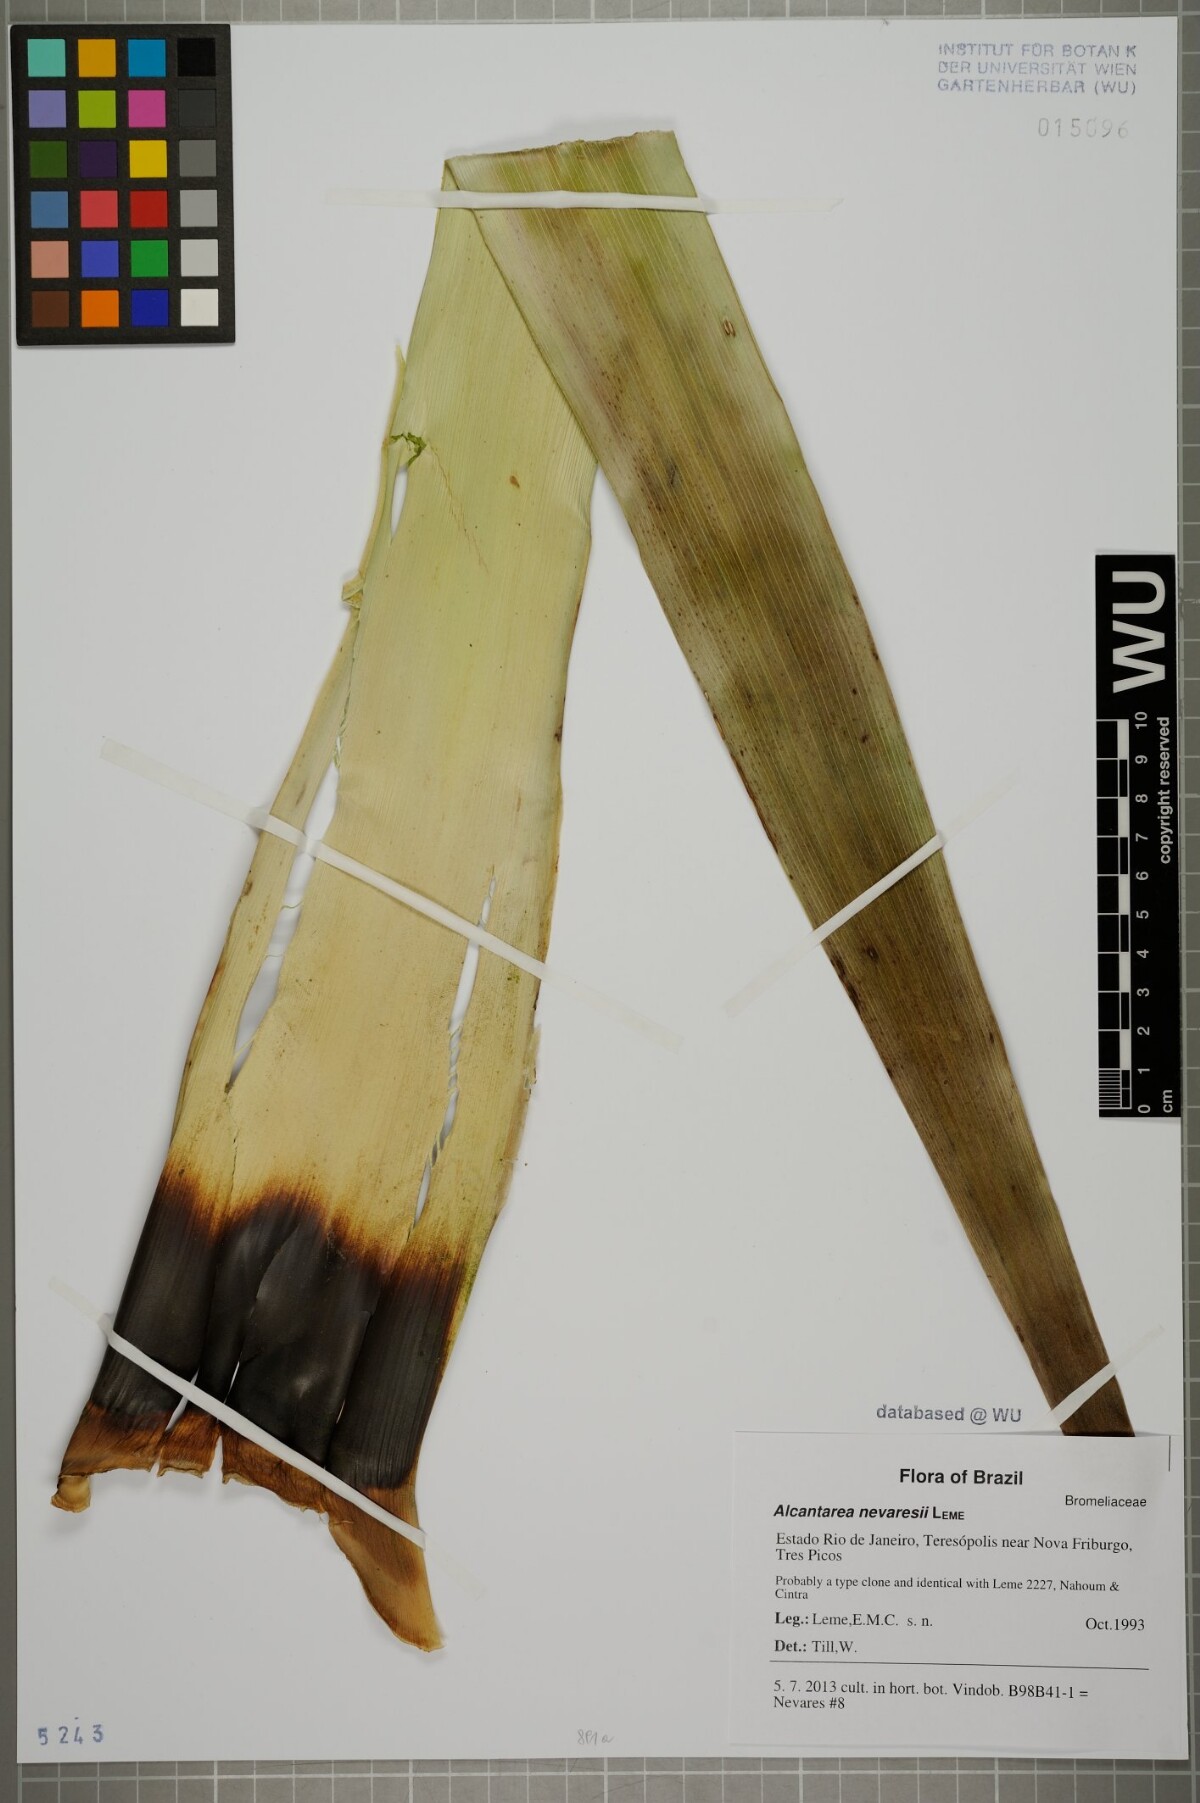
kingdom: Plantae
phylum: Tracheophyta
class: Liliopsida
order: Poales
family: Bromeliaceae
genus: Alcantarea
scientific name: Alcantarea nevaresii
